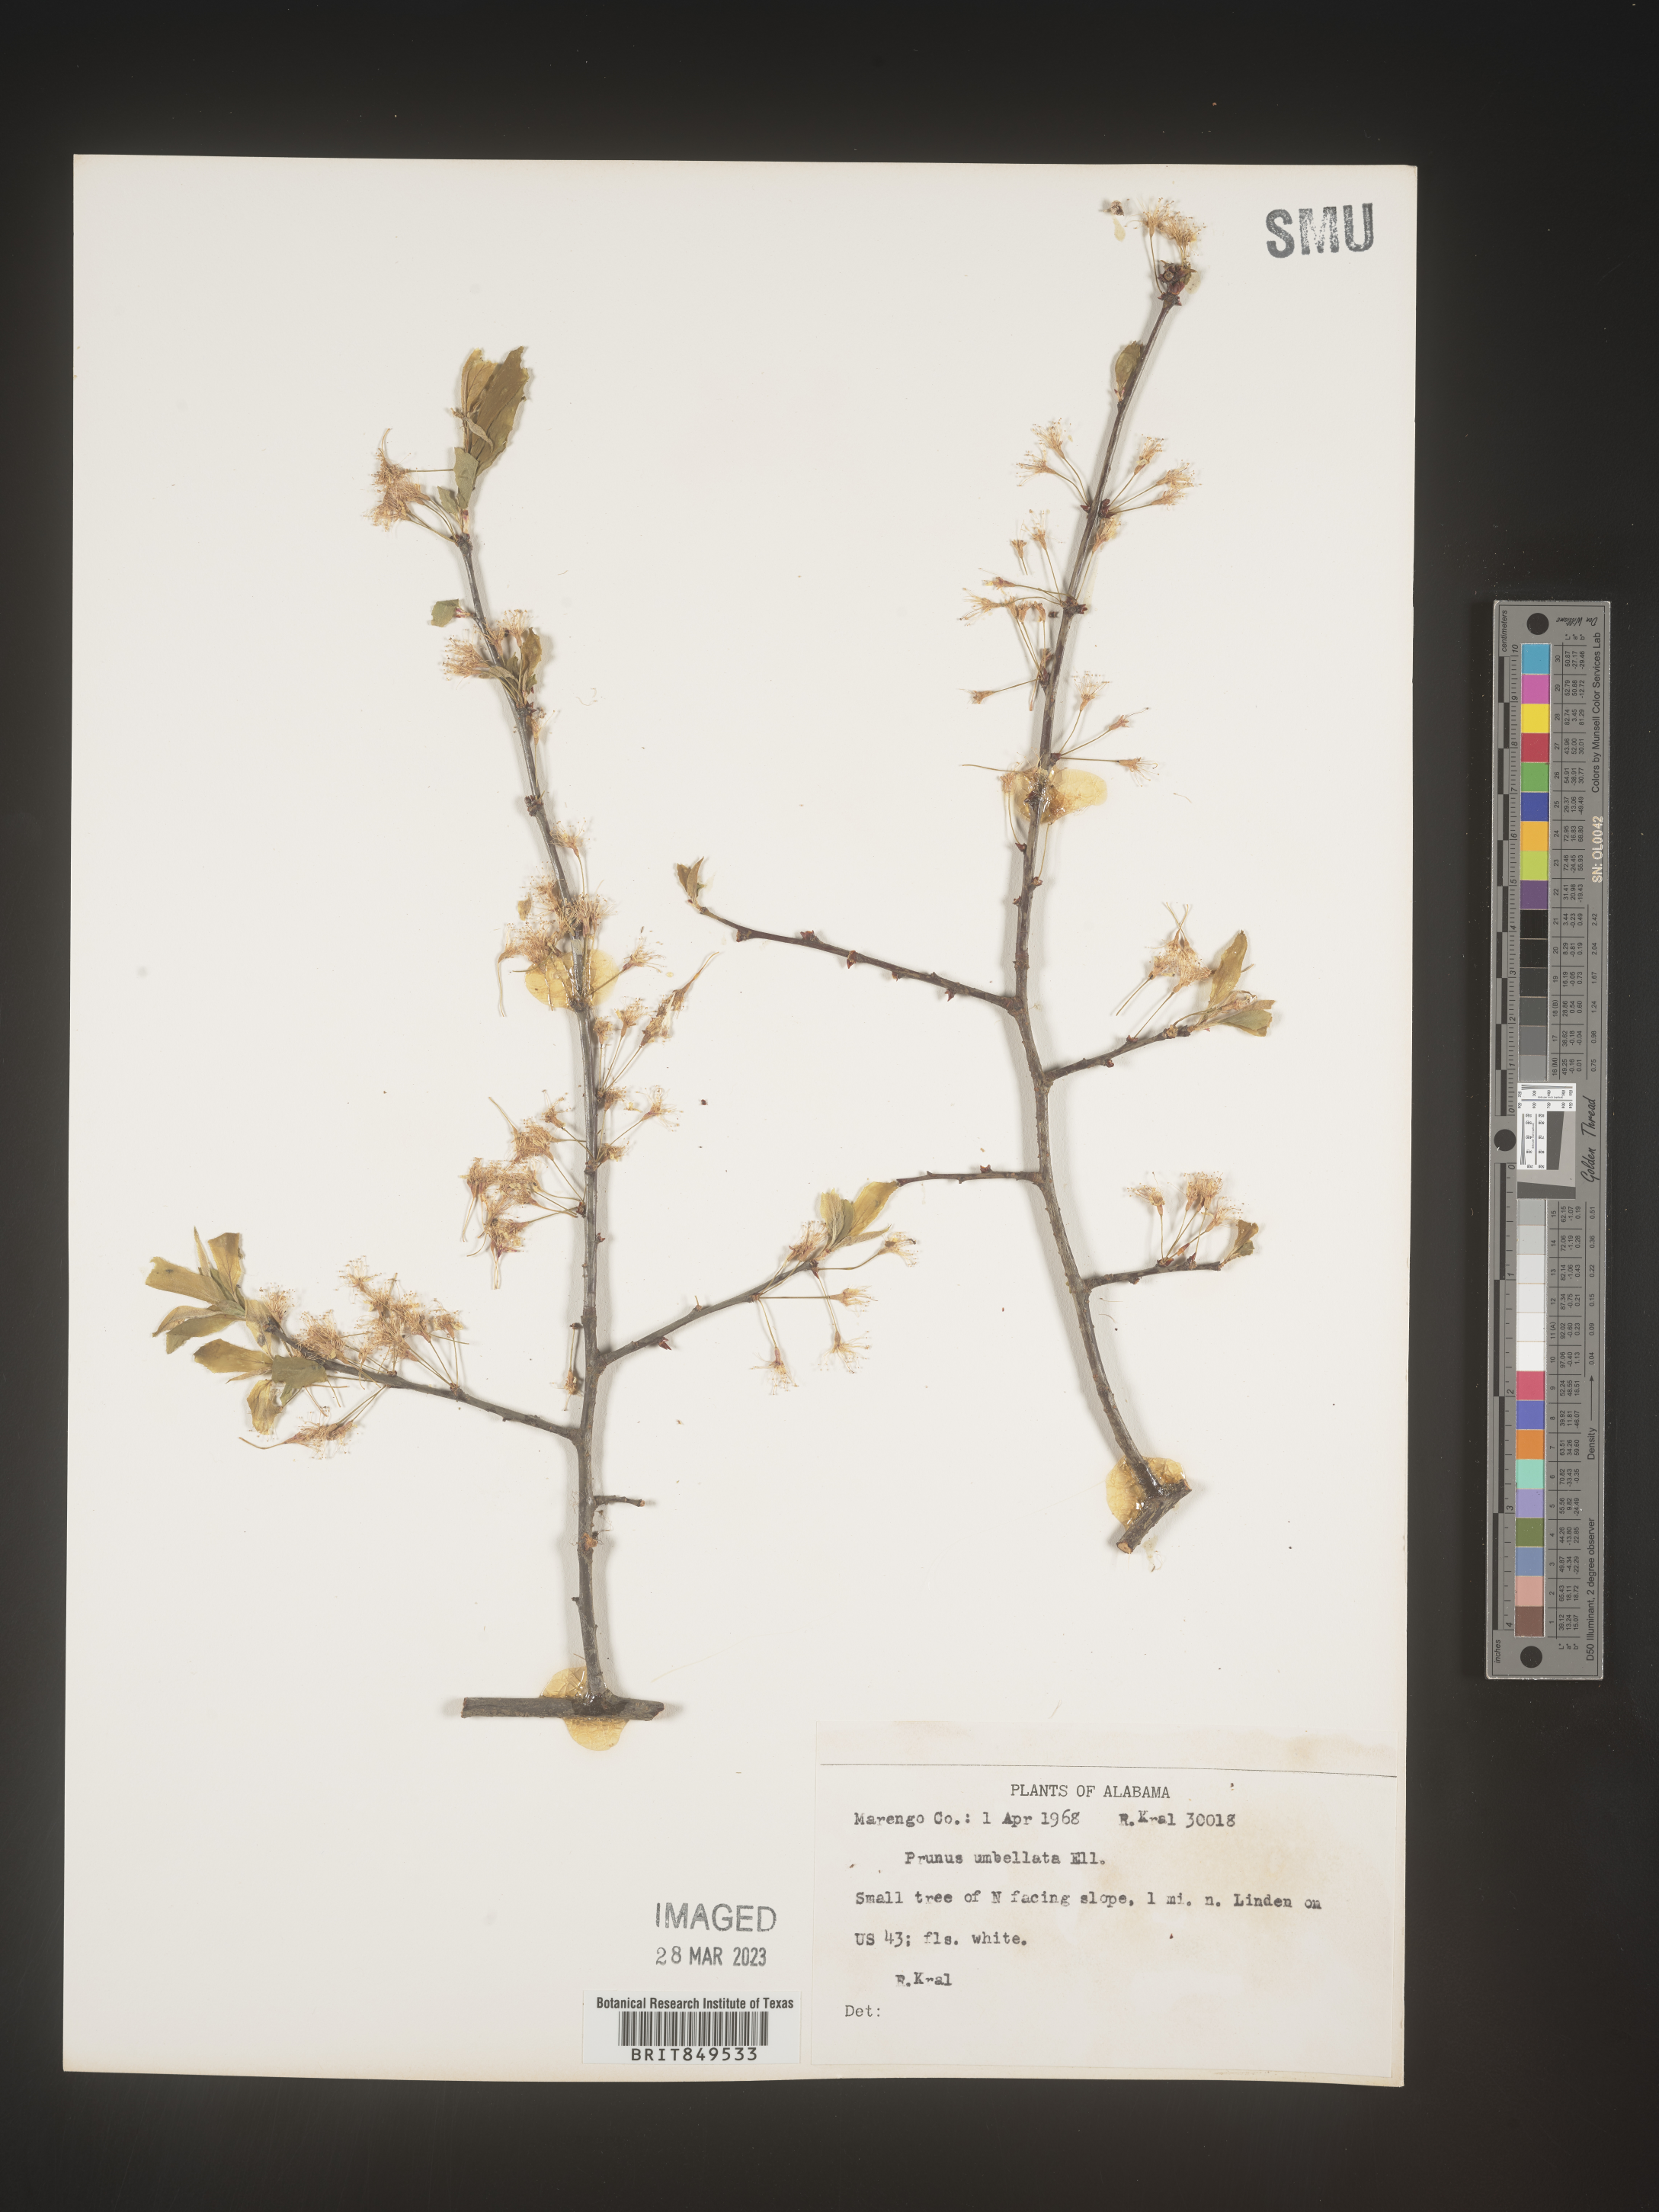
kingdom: Plantae
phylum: Tracheophyta
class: Magnoliopsida
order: Rosales
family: Rosaceae
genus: Prunus
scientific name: Prunus umbellata
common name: Allegheny plum
